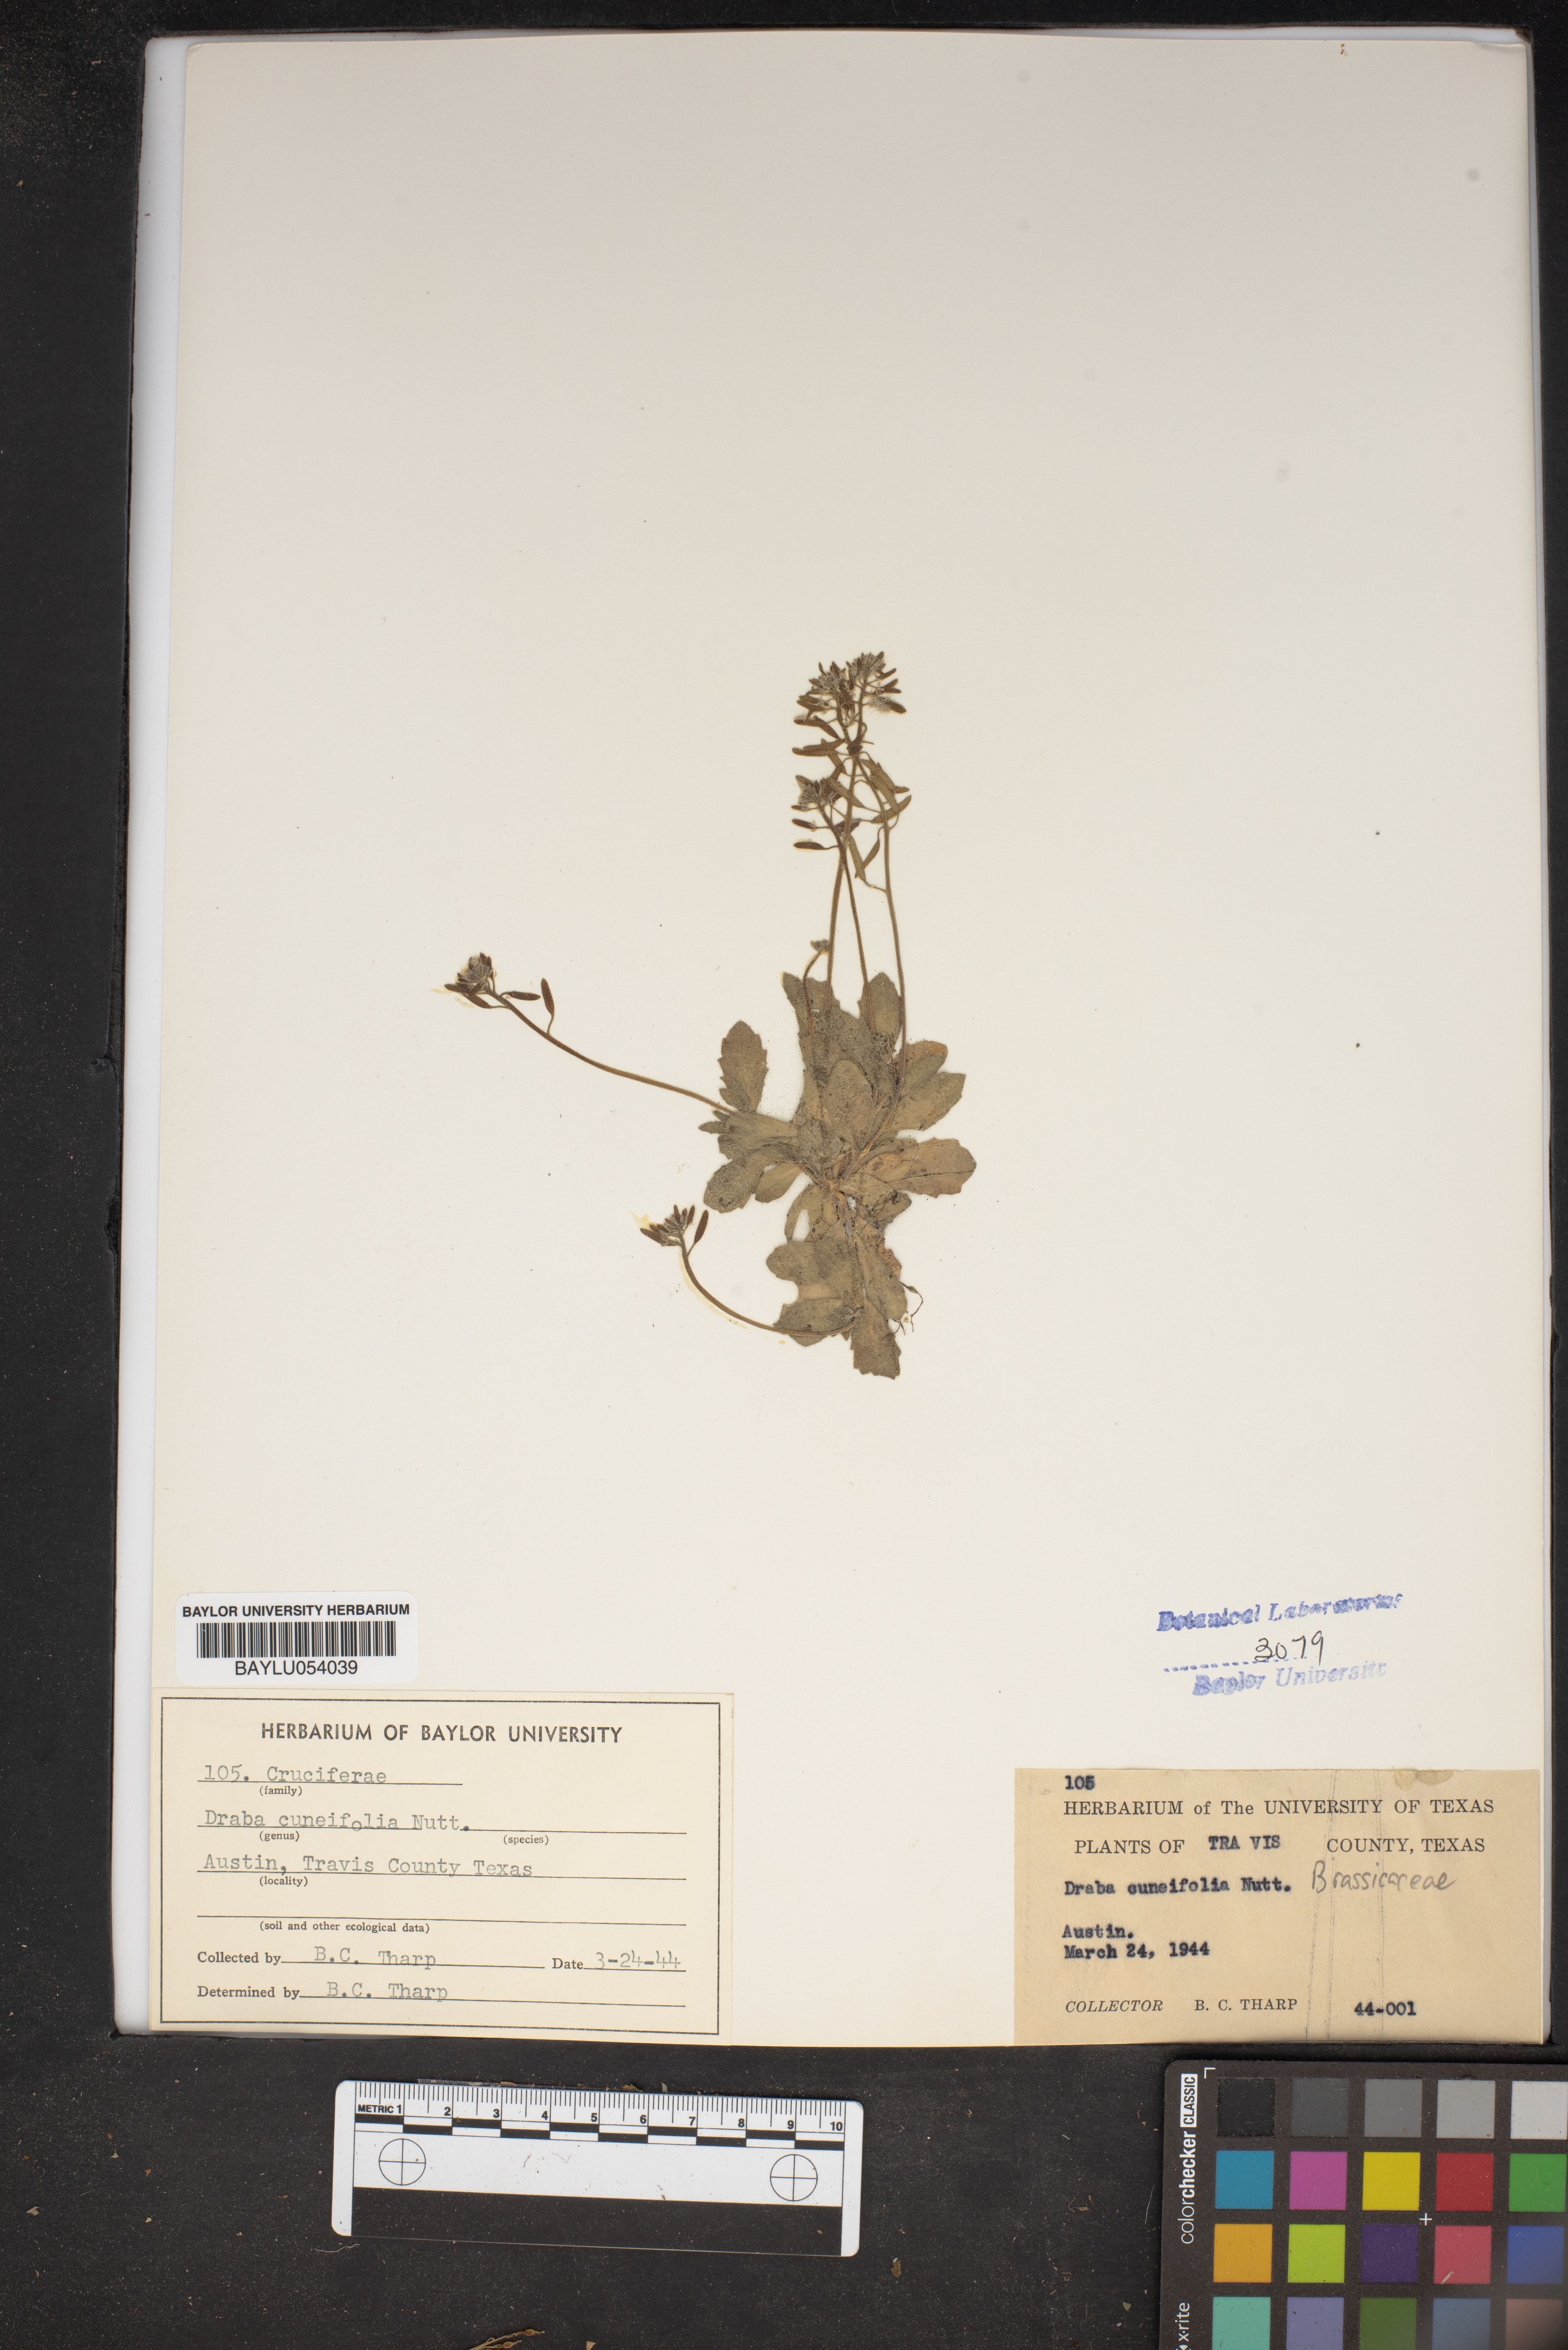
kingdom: Plantae
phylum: Tracheophyta
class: Magnoliopsida
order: Brassicales
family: Brassicaceae
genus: Tomostima
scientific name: Tomostima cuneifolia
